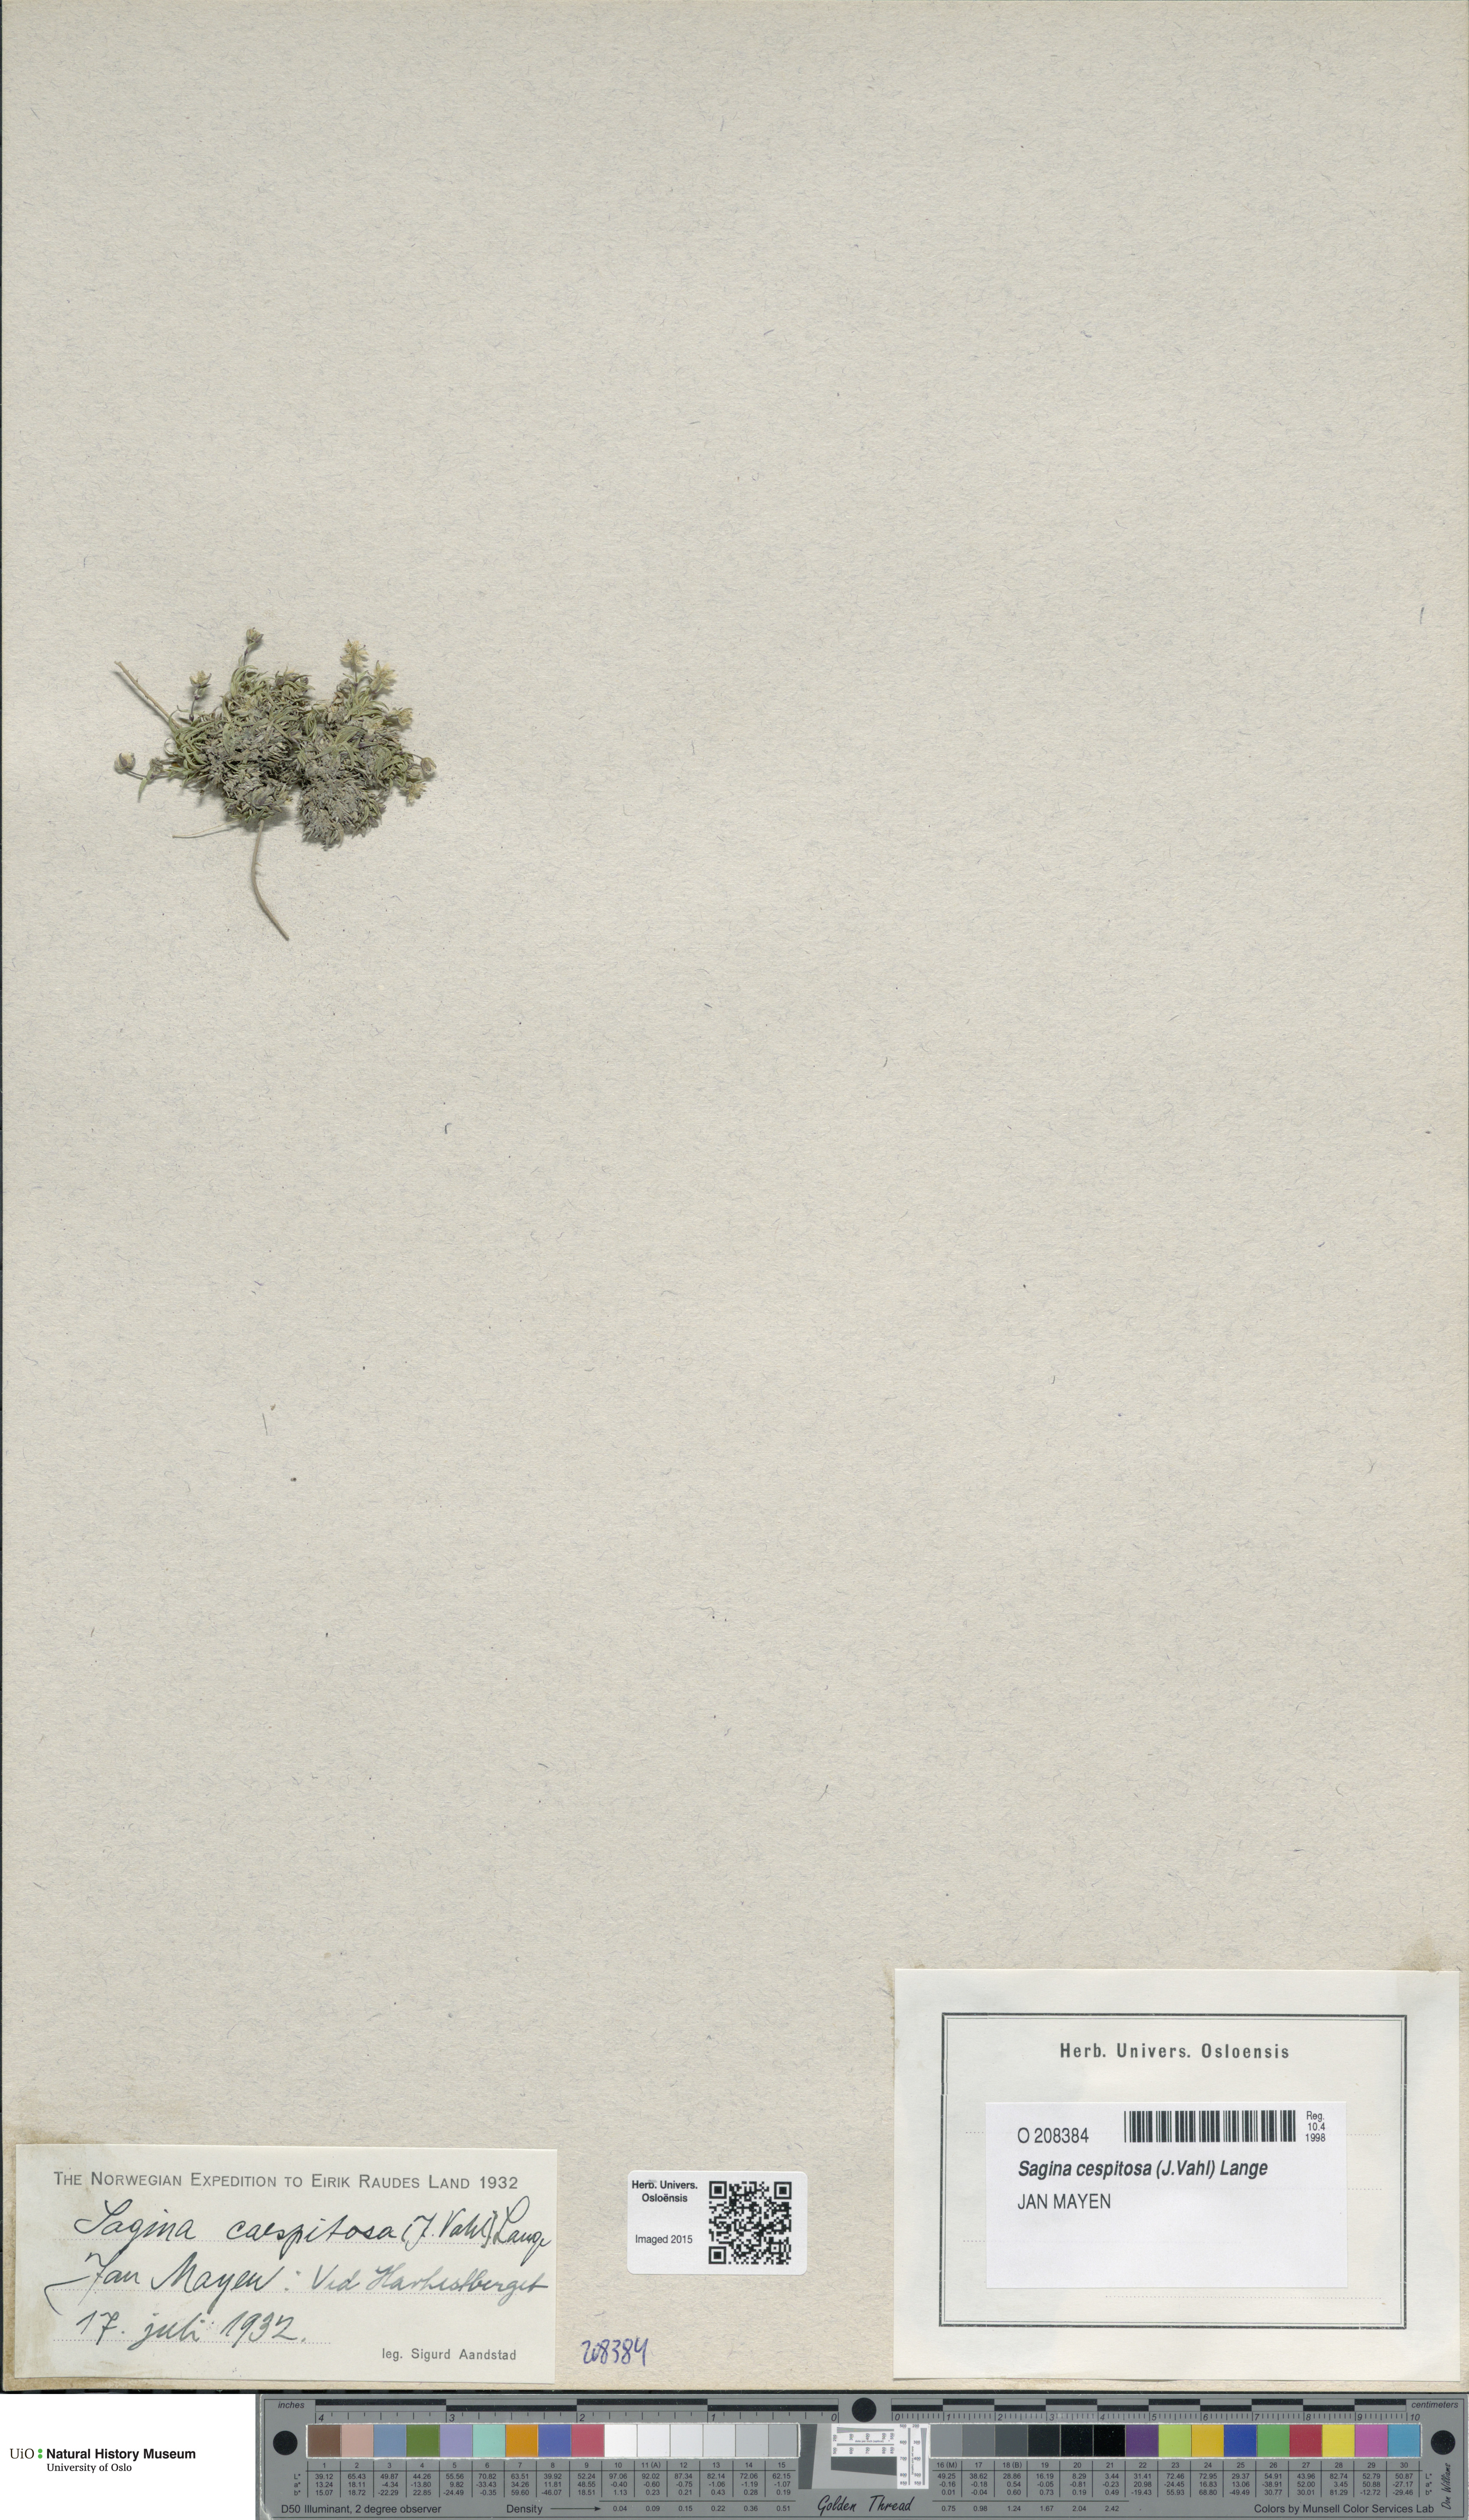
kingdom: Plantae
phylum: Tracheophyta
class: Magnoliopsida
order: Caryophyllales
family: Caryophyllaceae
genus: Sagina
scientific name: Sagina caespitosa
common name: Tufted pearlwort
